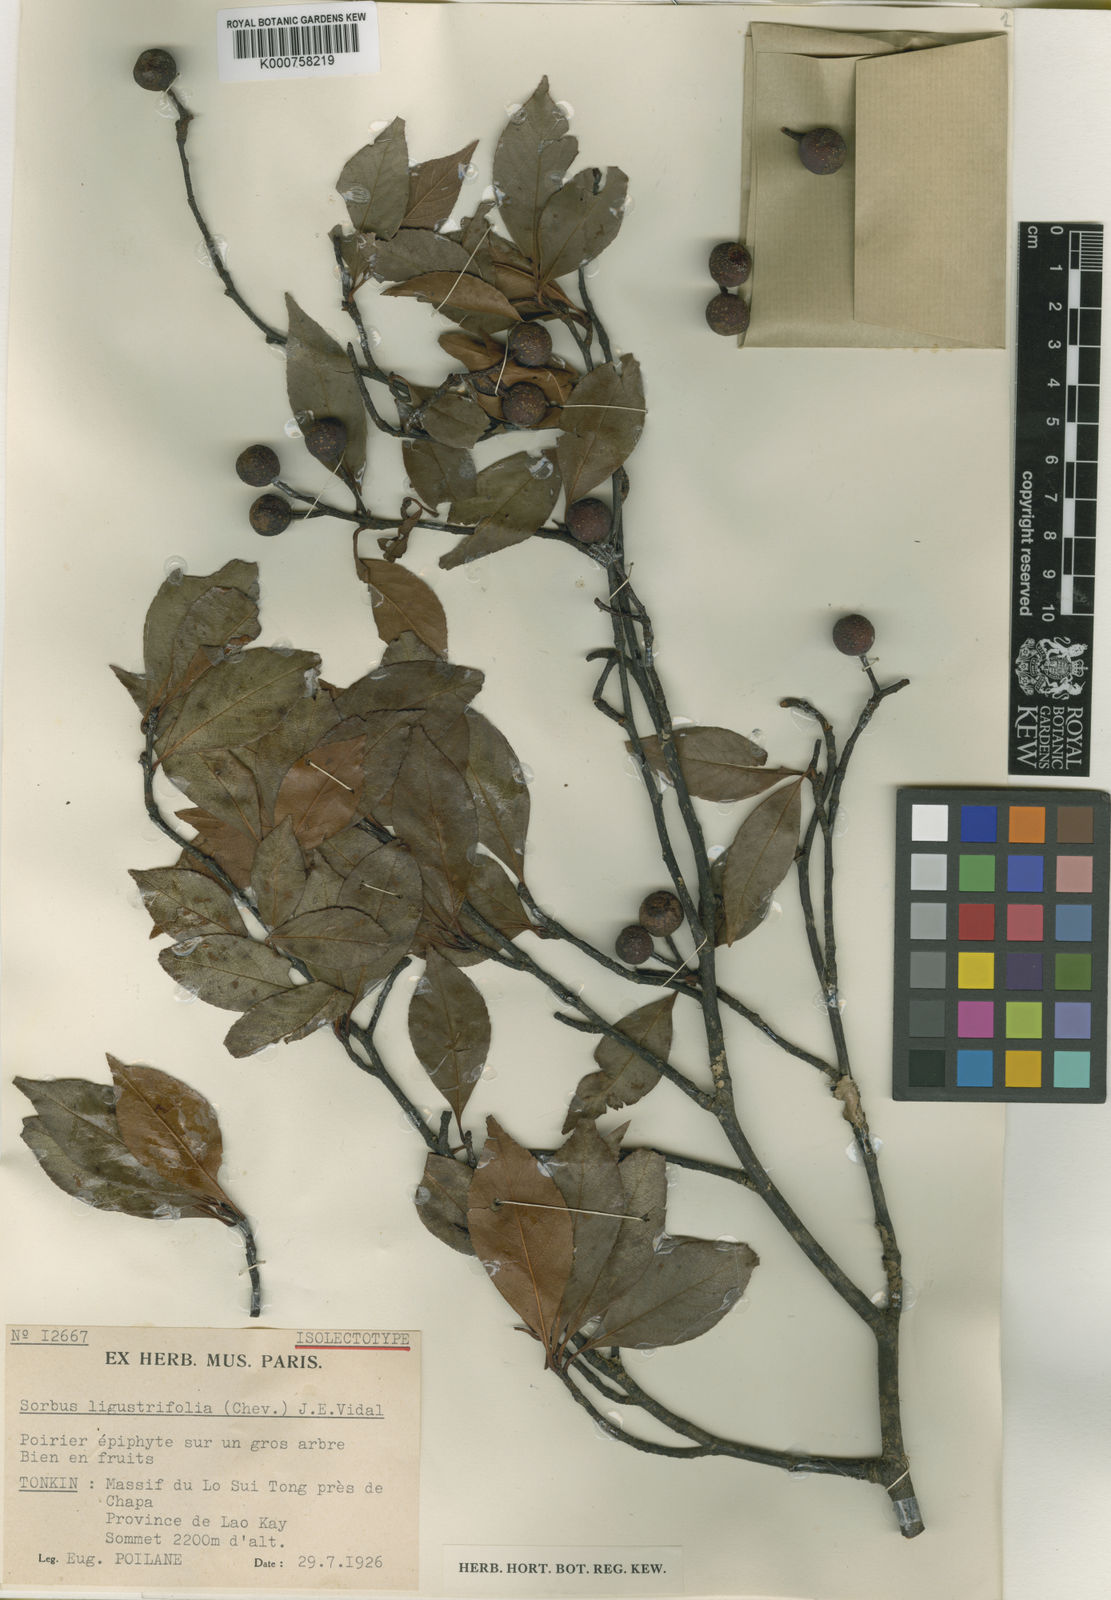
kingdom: Plantae
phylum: Tracheophyta
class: Magnoliopsida
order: Rosales
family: Rosaceae
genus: Sorbus
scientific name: Sorbus ligustrifolia
